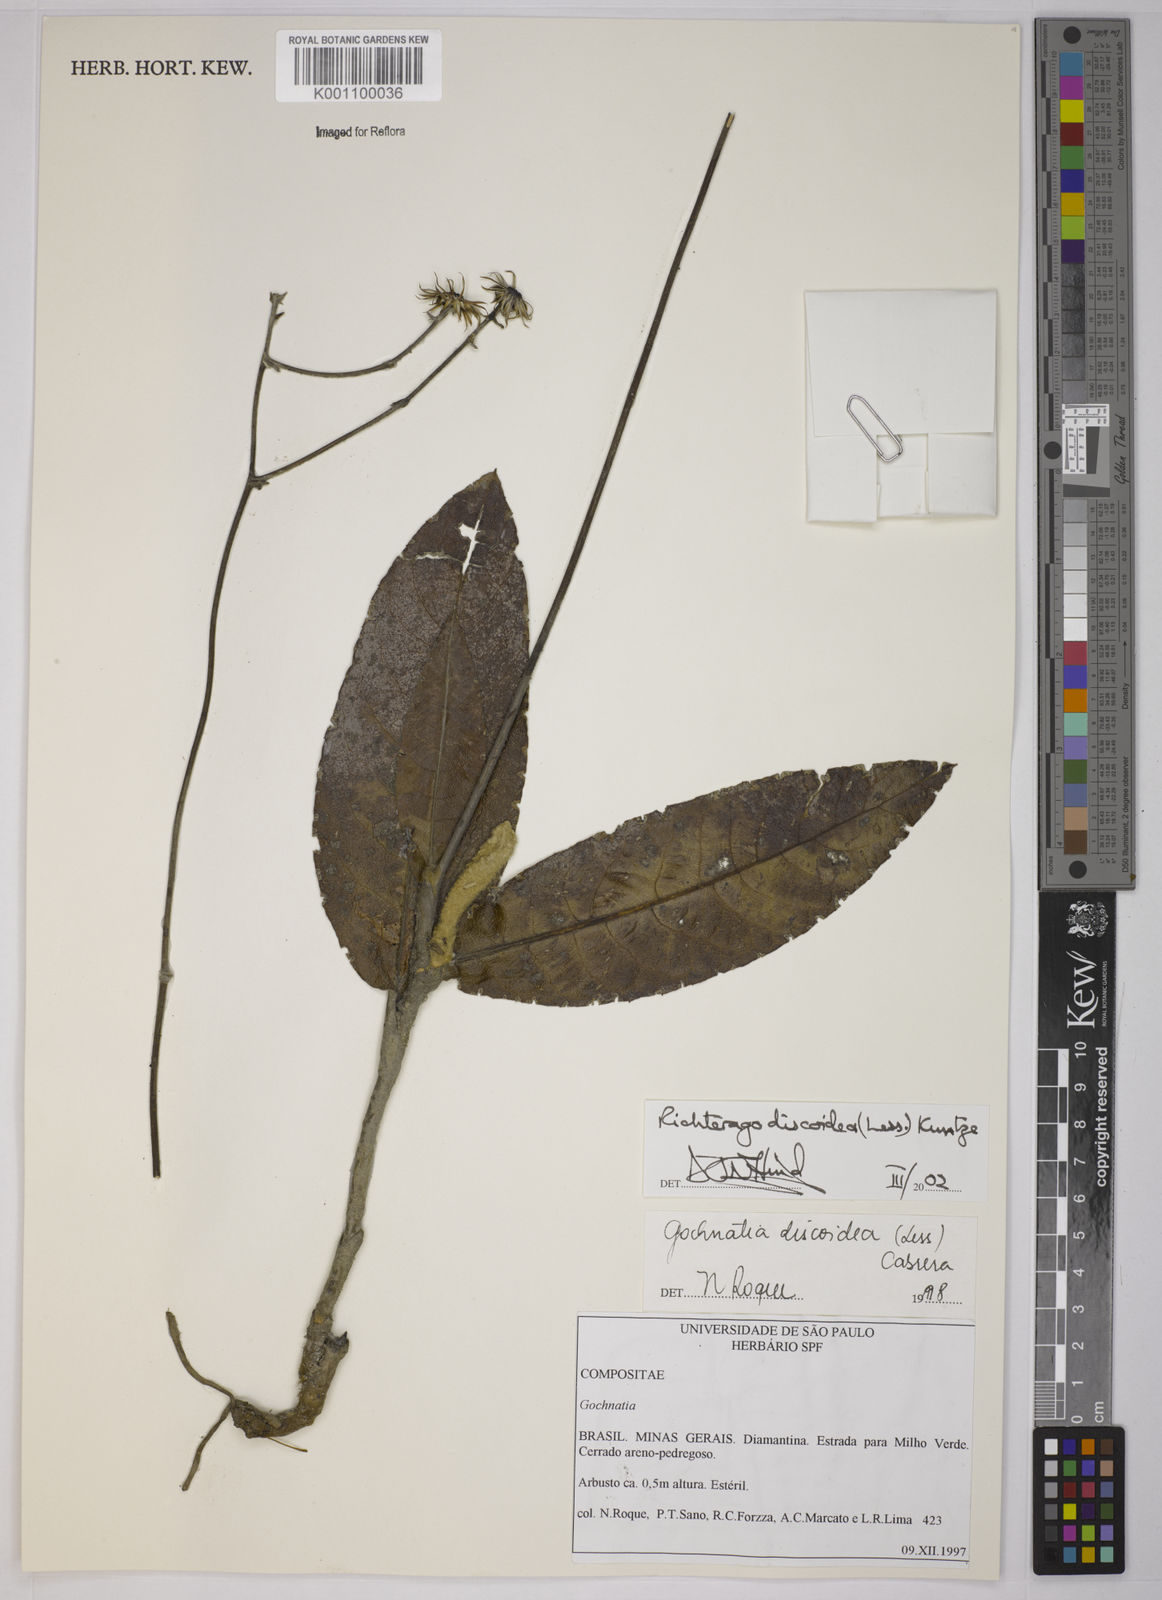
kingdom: Plantae
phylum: Tracheophyta
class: Magnoliopsida
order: Asterales
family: Asteraceae
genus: Richterago
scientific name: Richterago discoidea
